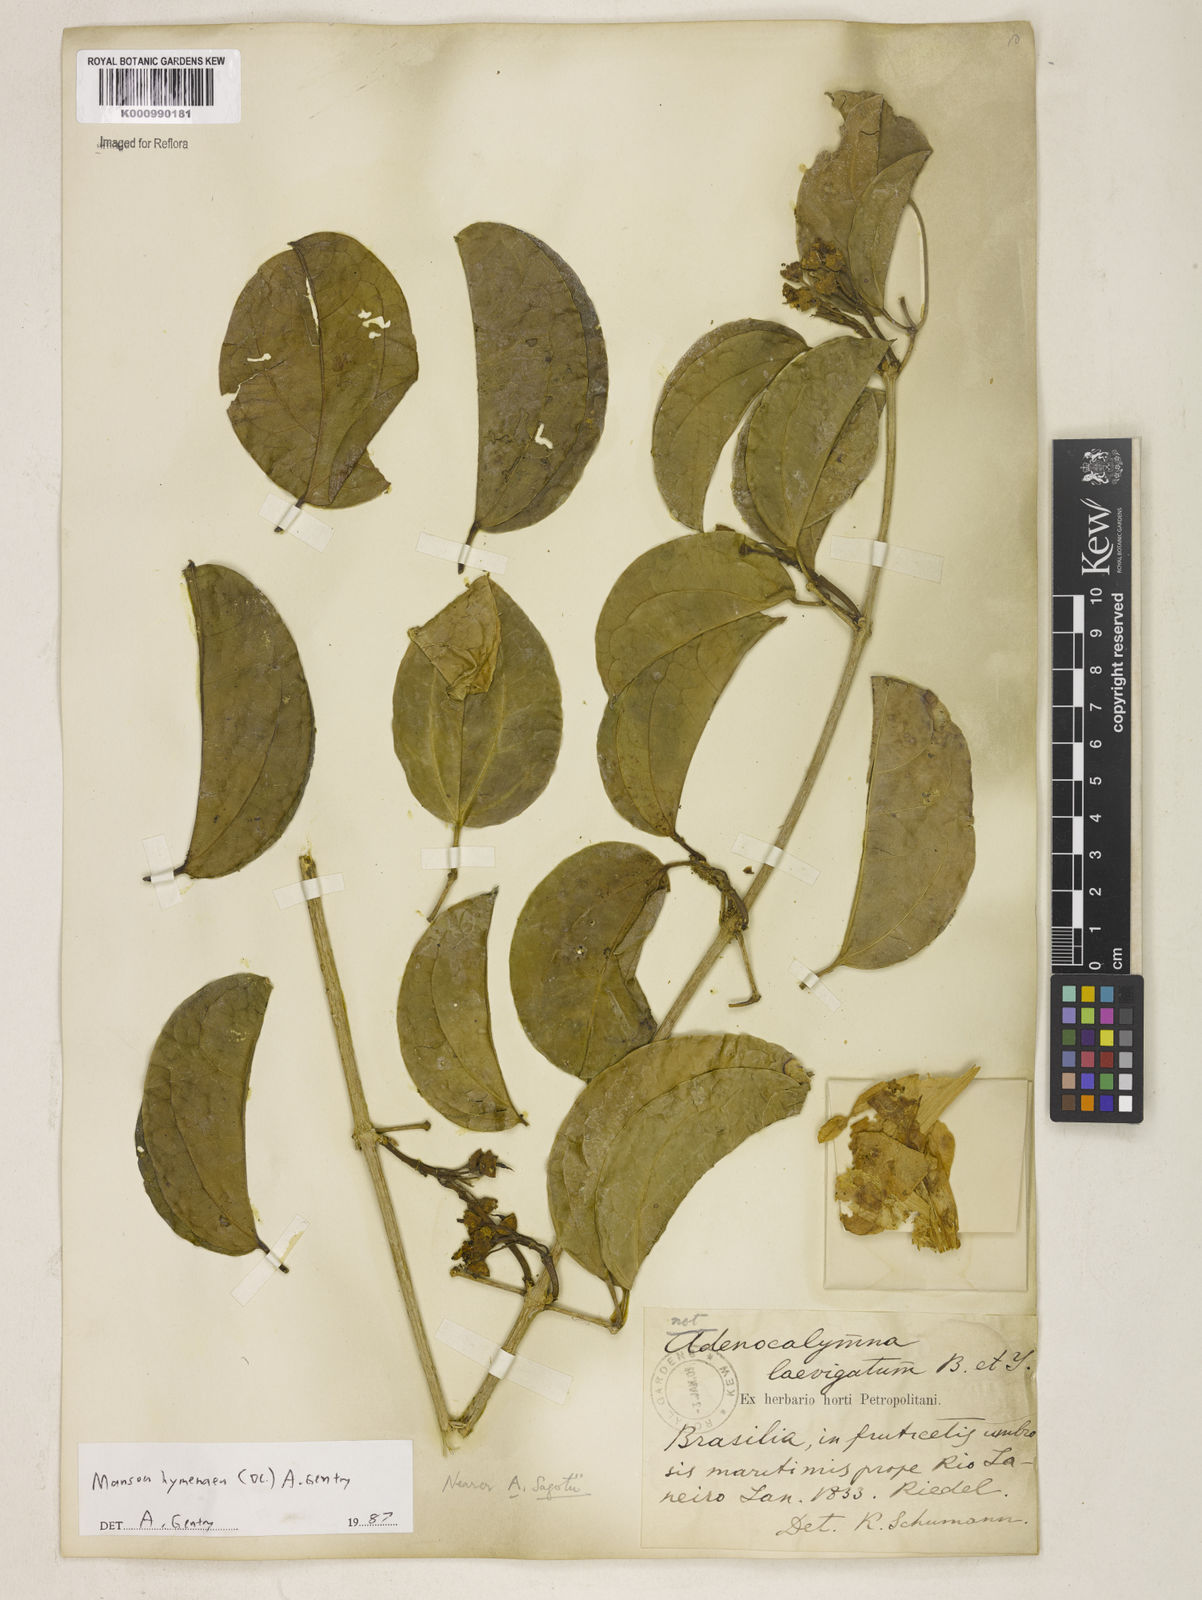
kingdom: Plantae
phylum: Tracheophyta
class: Magnoliopsida
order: Lamiales
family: Bignoniaceae
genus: Mansoa
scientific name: Mansoa hymenaea
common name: Membranous garlic vine
